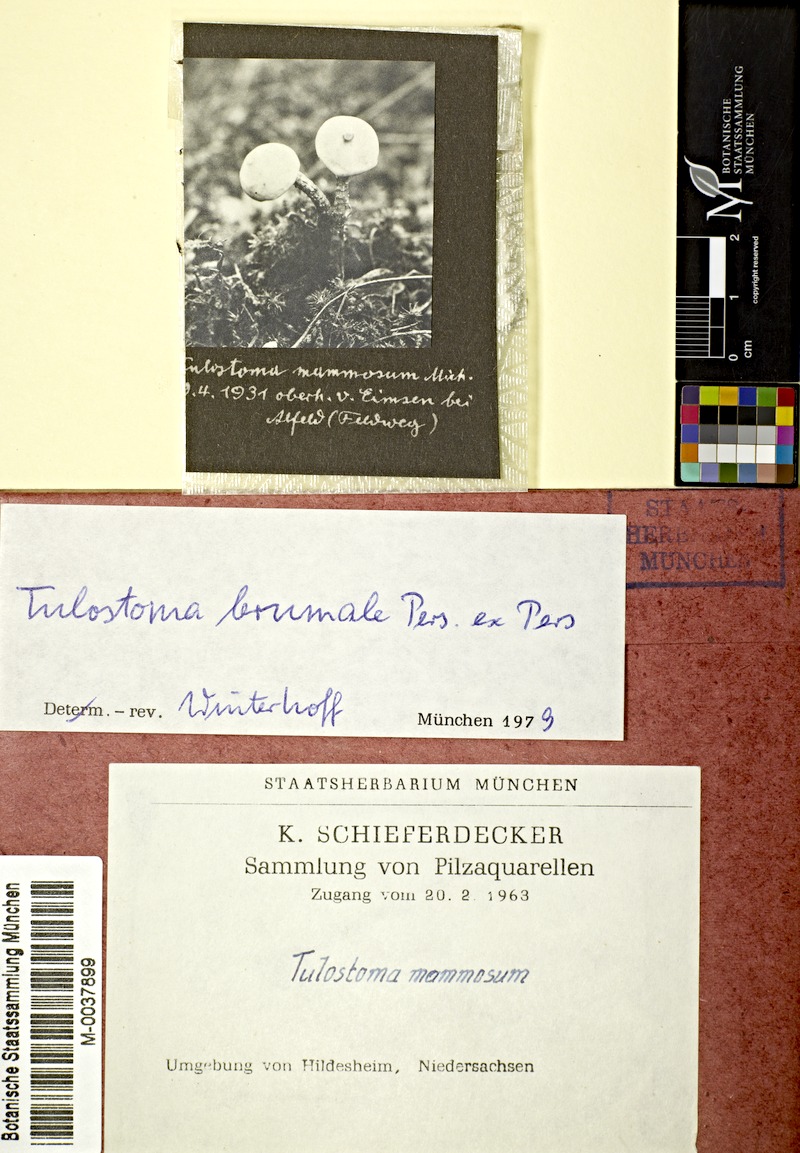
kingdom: Fungi
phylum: Basidiomycota
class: Agaricomycetes
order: Agaricales
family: Agaricaceae
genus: Tulostoma
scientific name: Tulostoma brumale
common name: Winter stalk puffball
